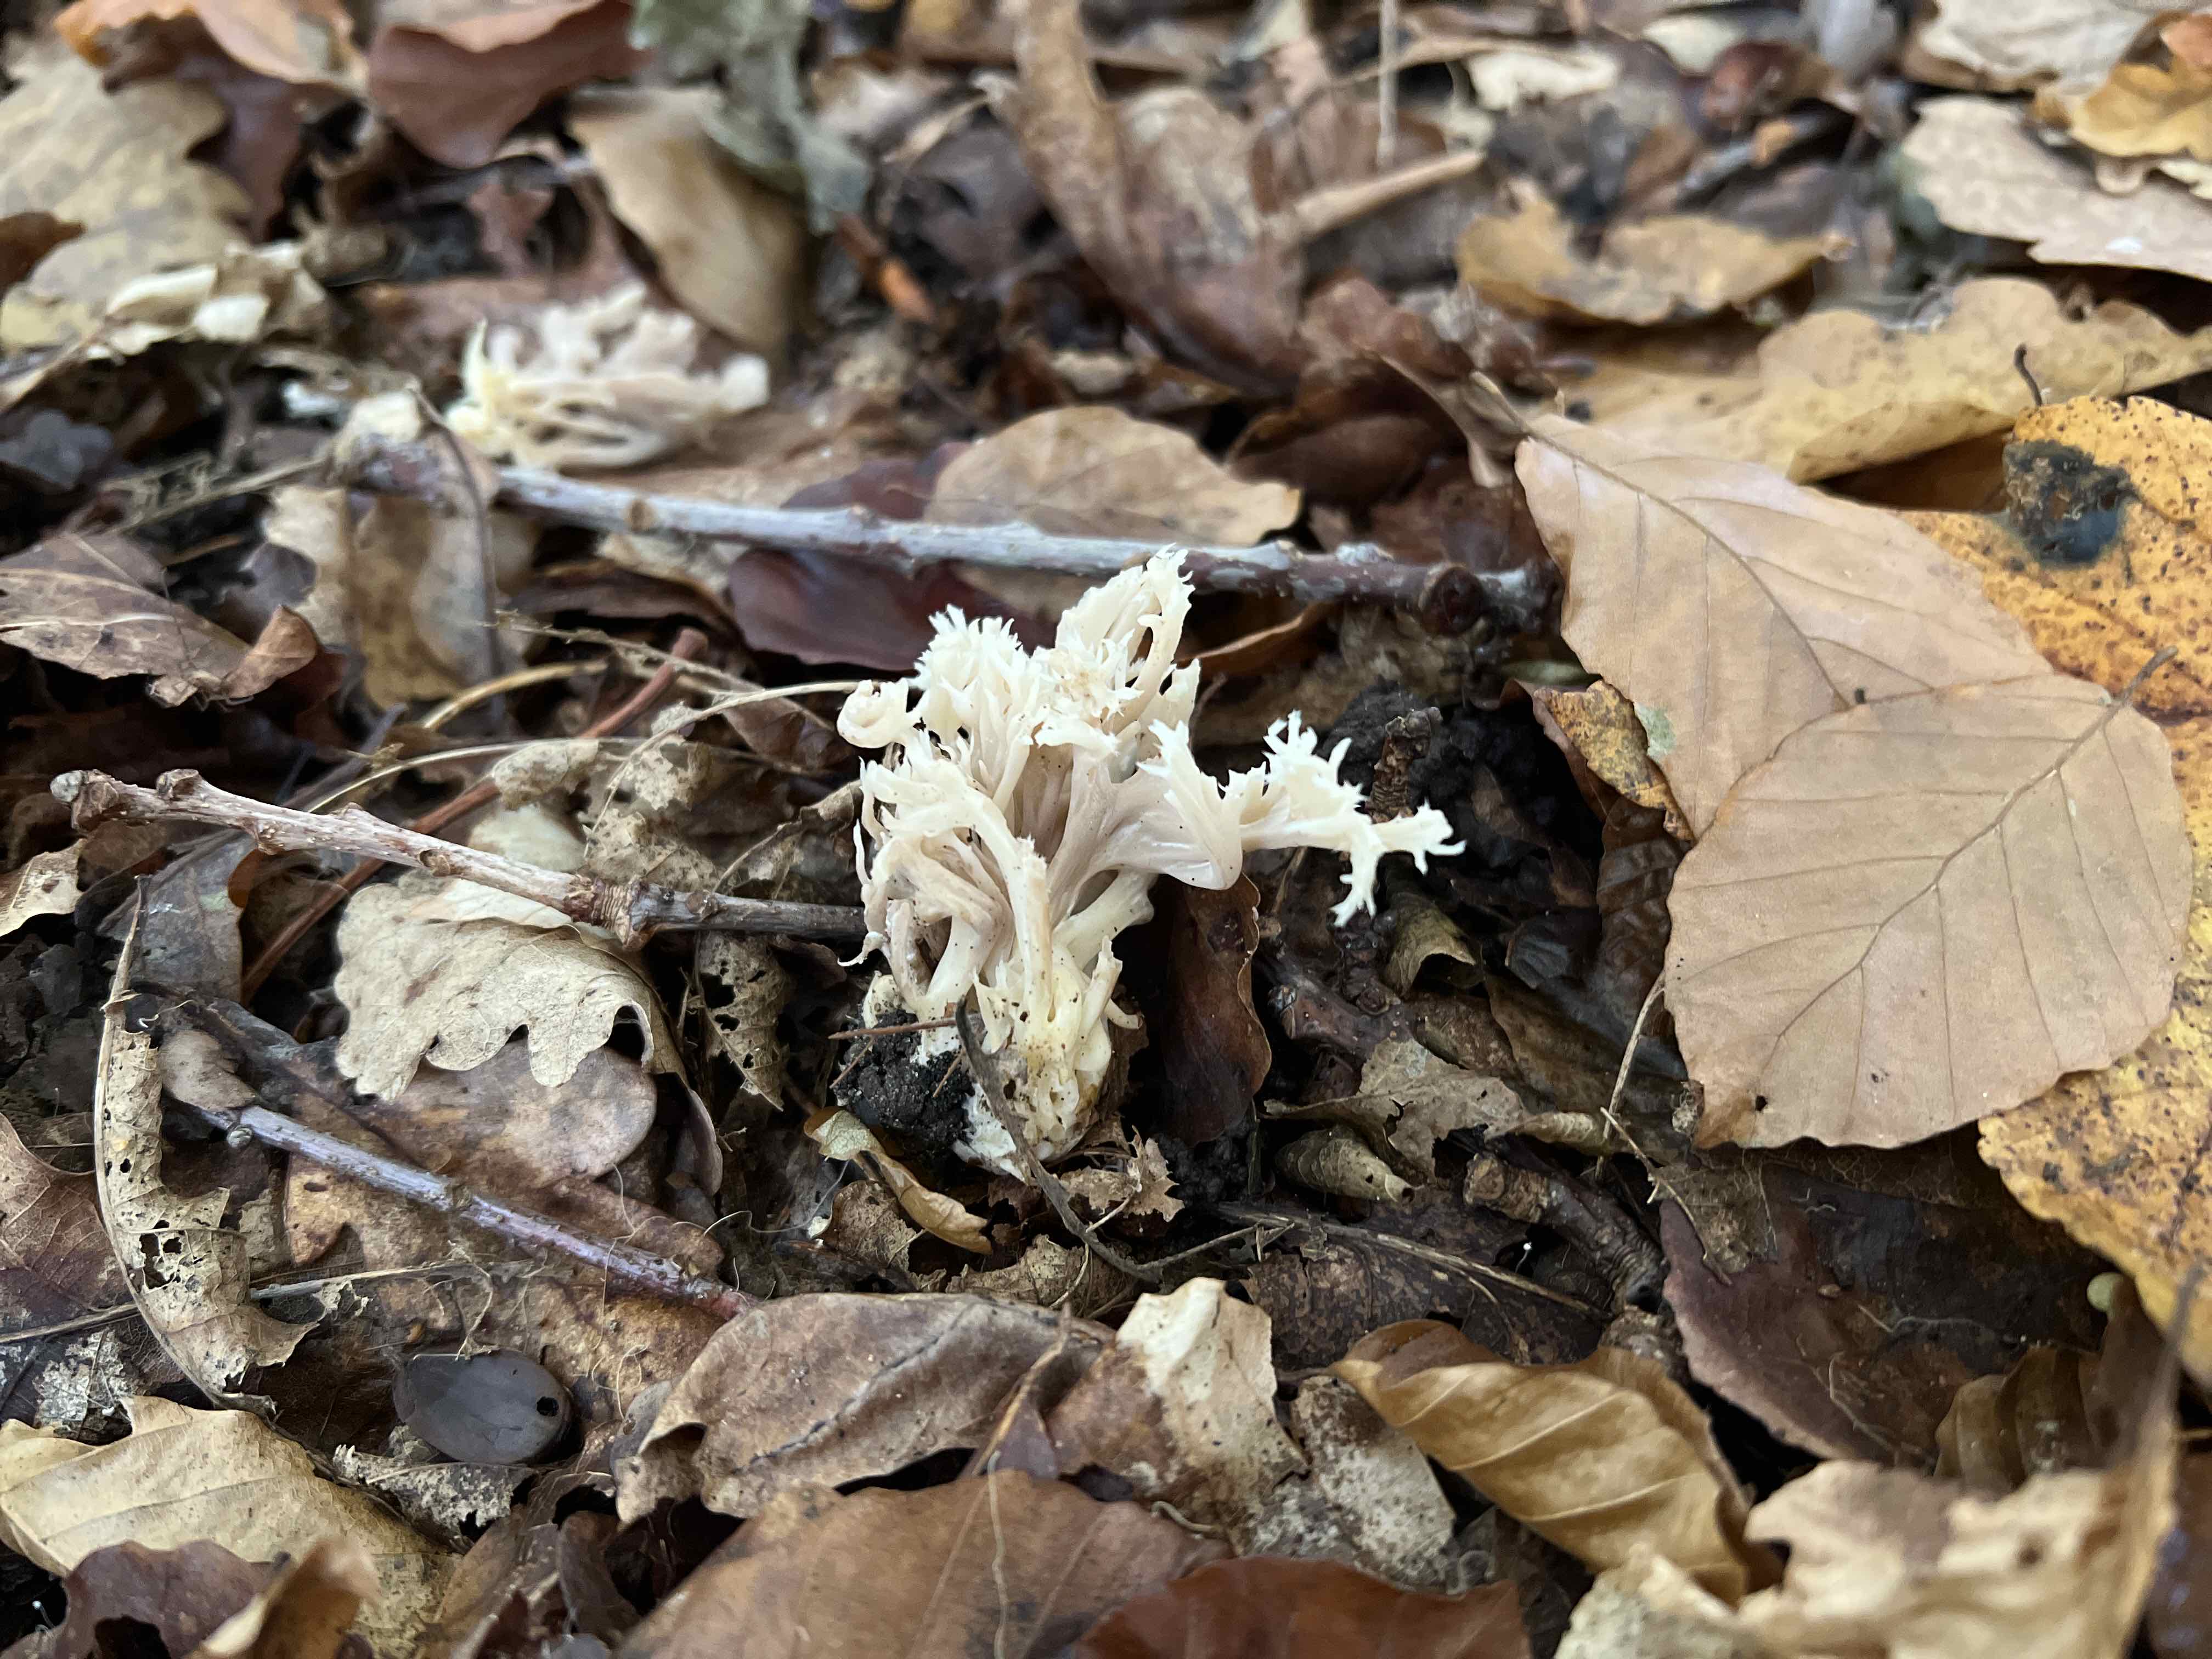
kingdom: Fungi
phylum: Basidiomycota
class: Agaricomycetes
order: Cantharellales
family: Hydnaceae
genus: Clavulina
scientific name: Clavulina
